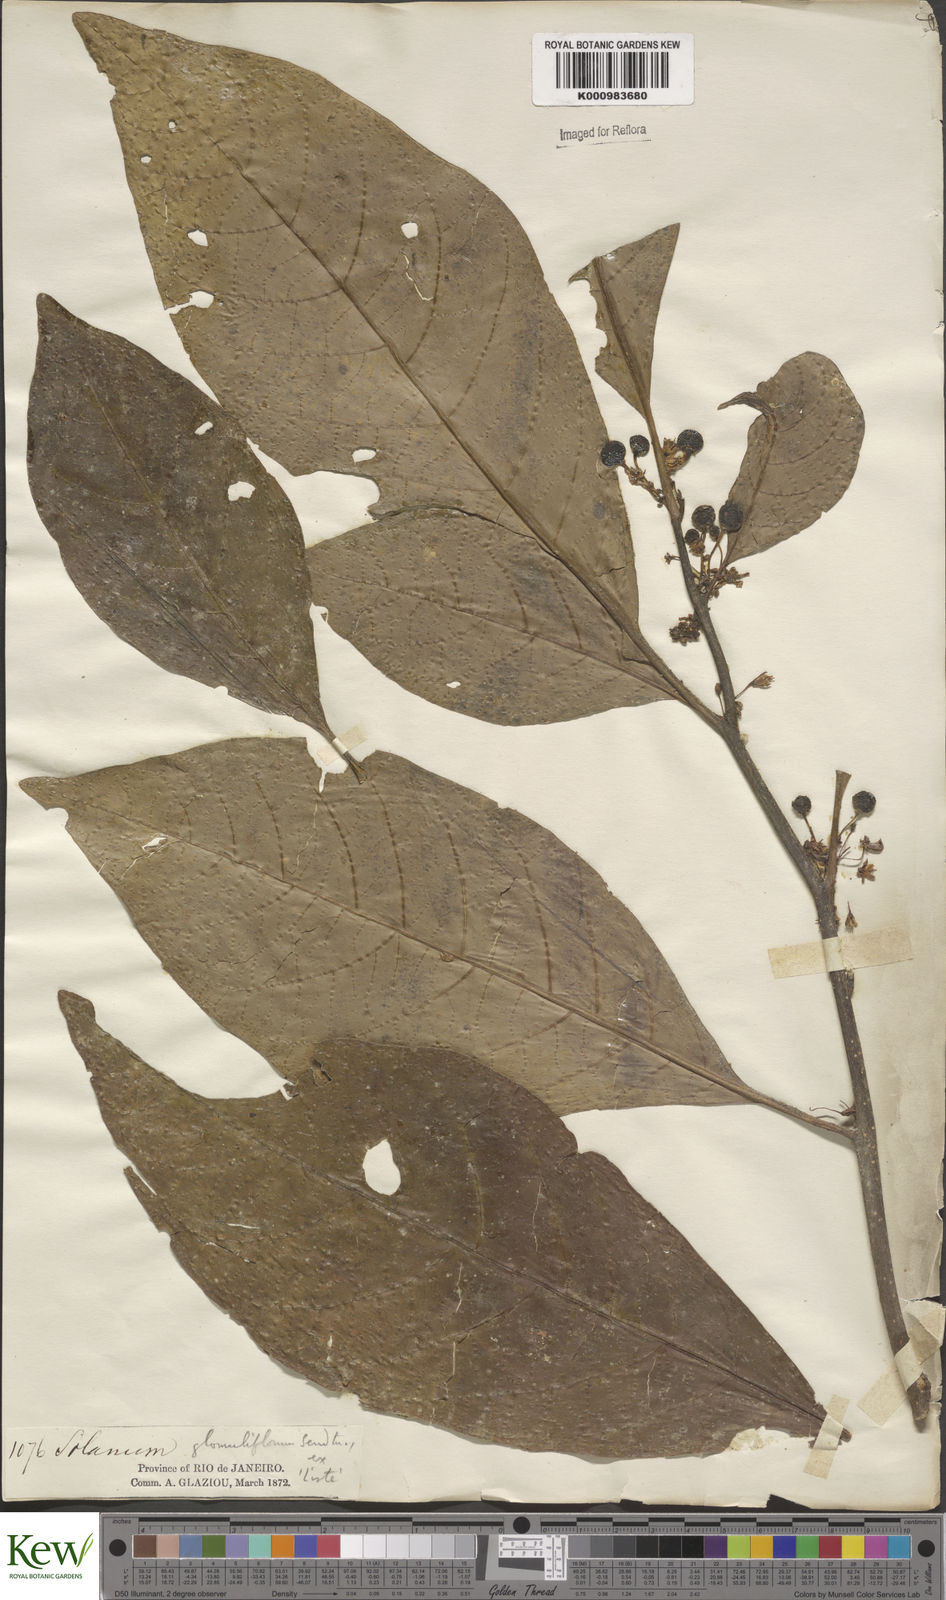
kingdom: Plantae
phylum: Tracheophyta
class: Magnoliopsida
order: Solanales
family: Solanaceae
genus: Solanum
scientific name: Solanum glomuliflorum
